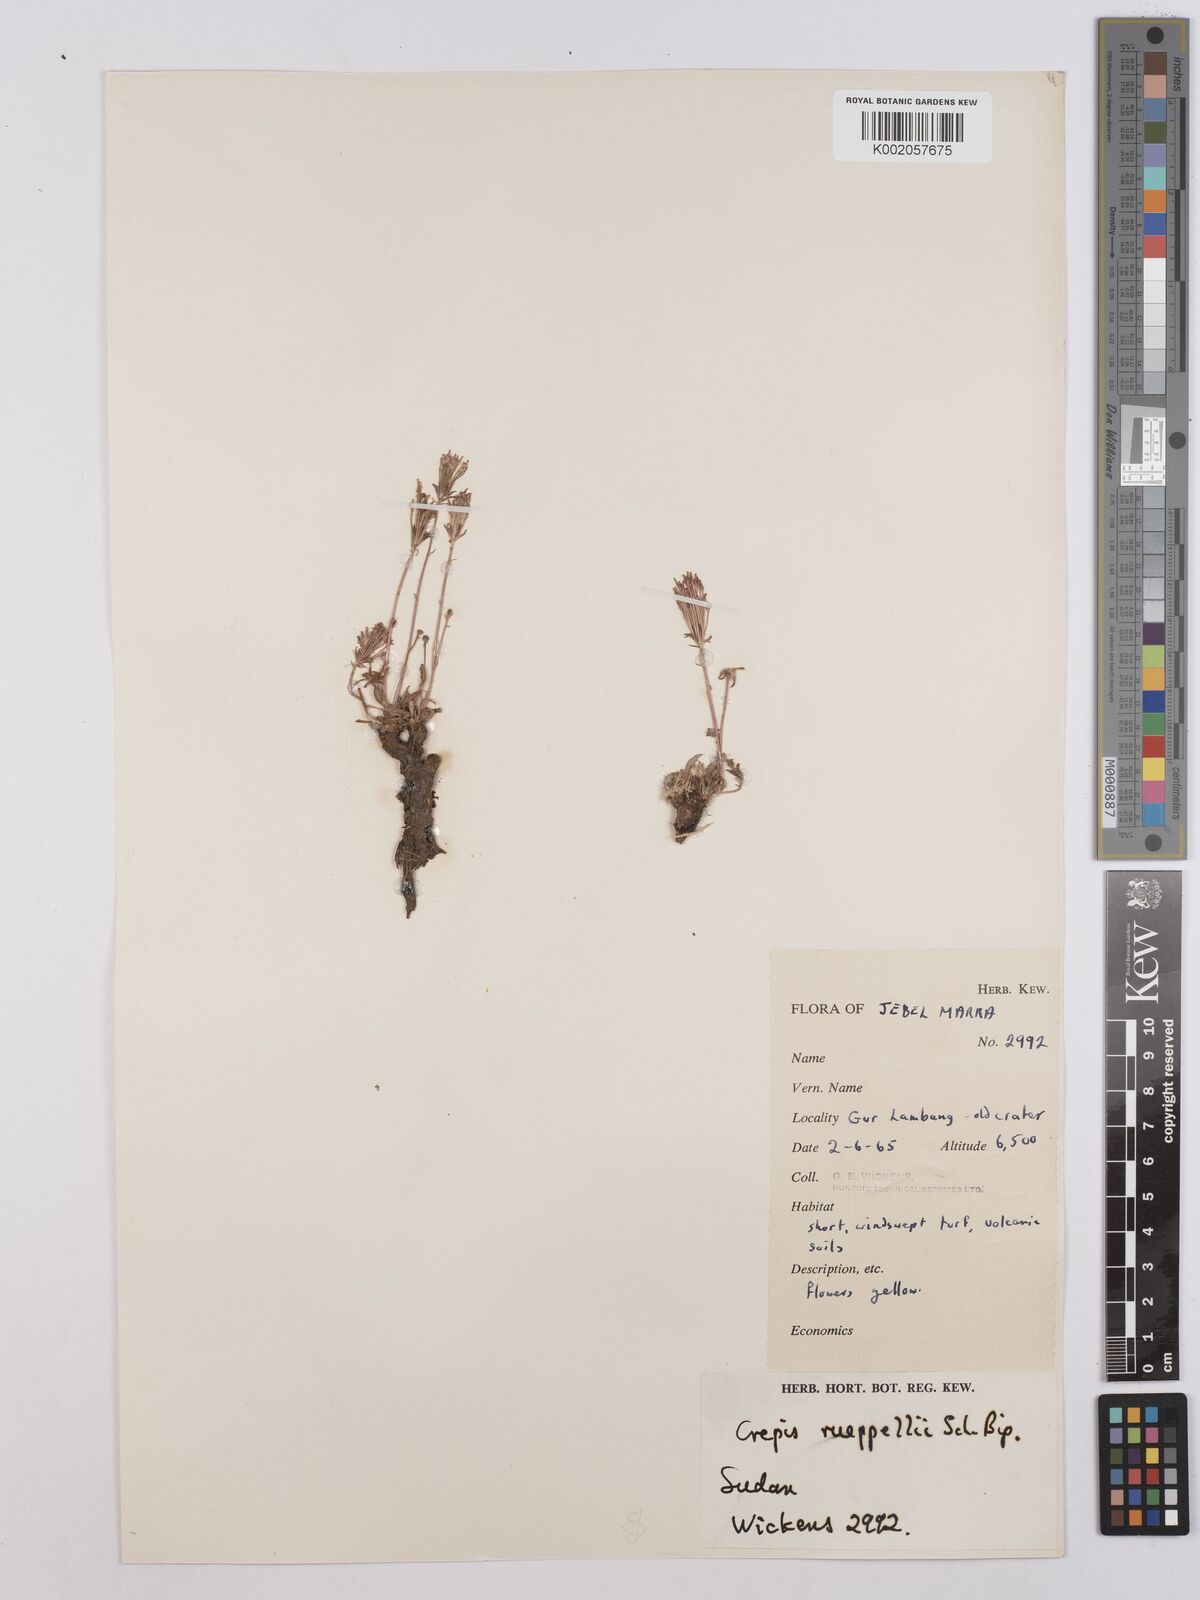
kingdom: Plantae
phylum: Tracheophyta
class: Magnoliopsida
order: Asterales
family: Asteraceae
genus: Crepis
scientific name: Crepis rueppellii
